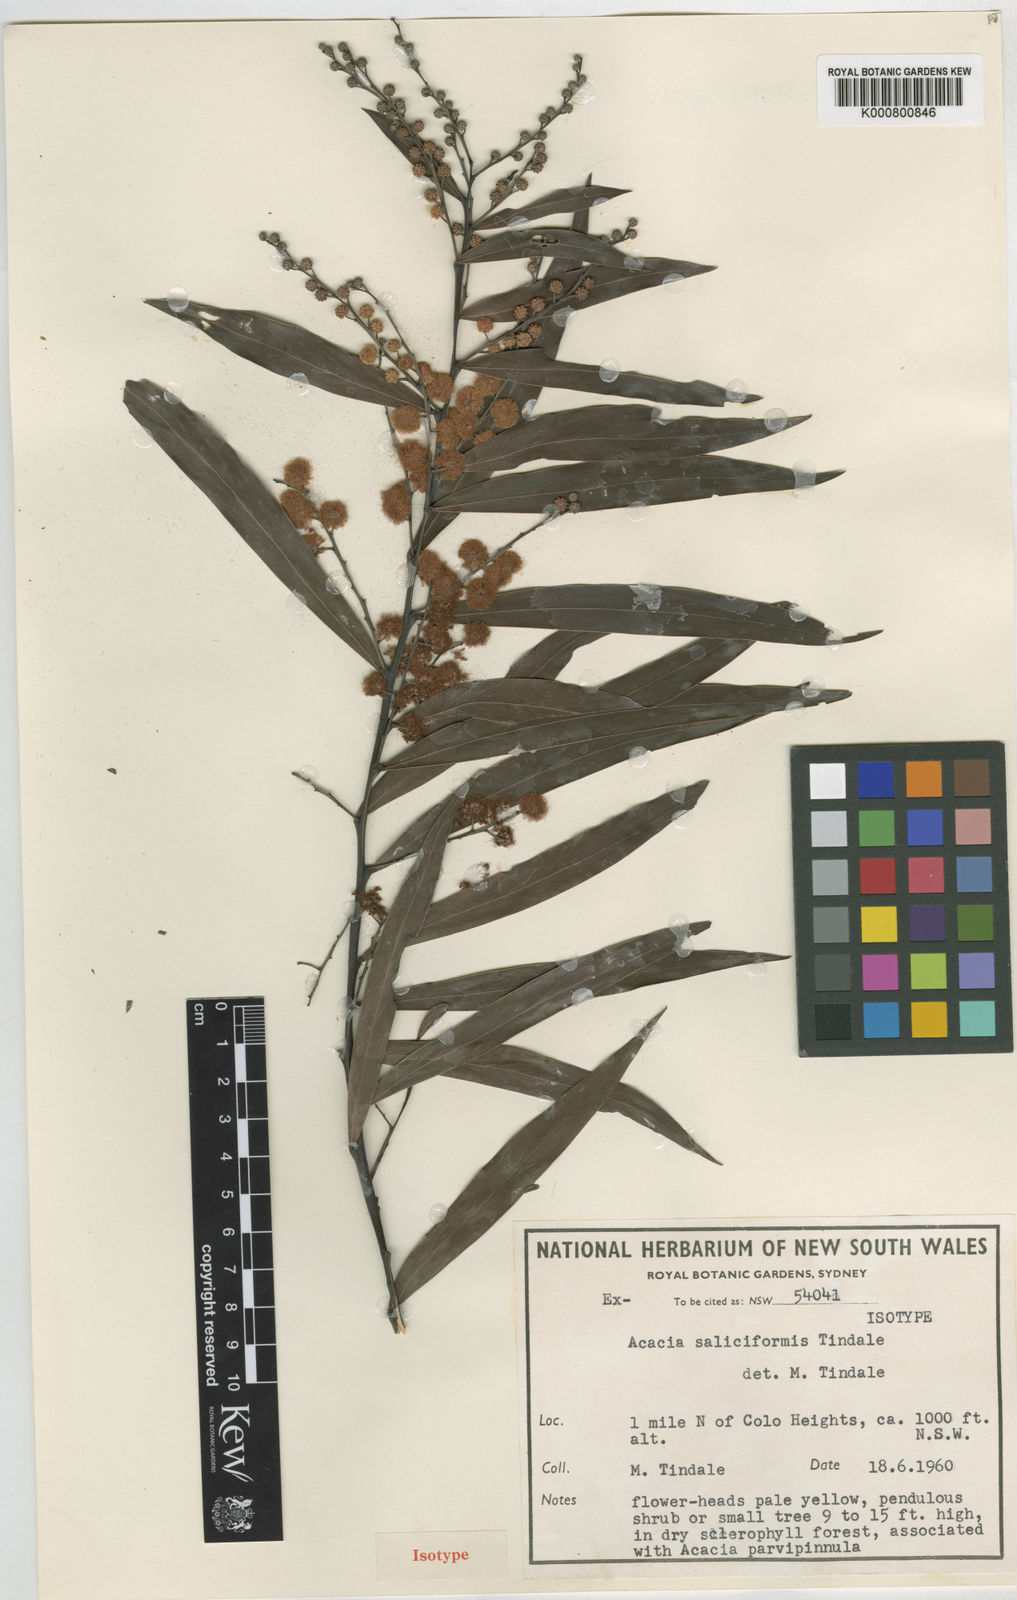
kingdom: Plantae
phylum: Tracheophyta
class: Magnoliopsida
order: Fabales
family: Fabaceae
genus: Acacia
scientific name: Acacia saliciformis
